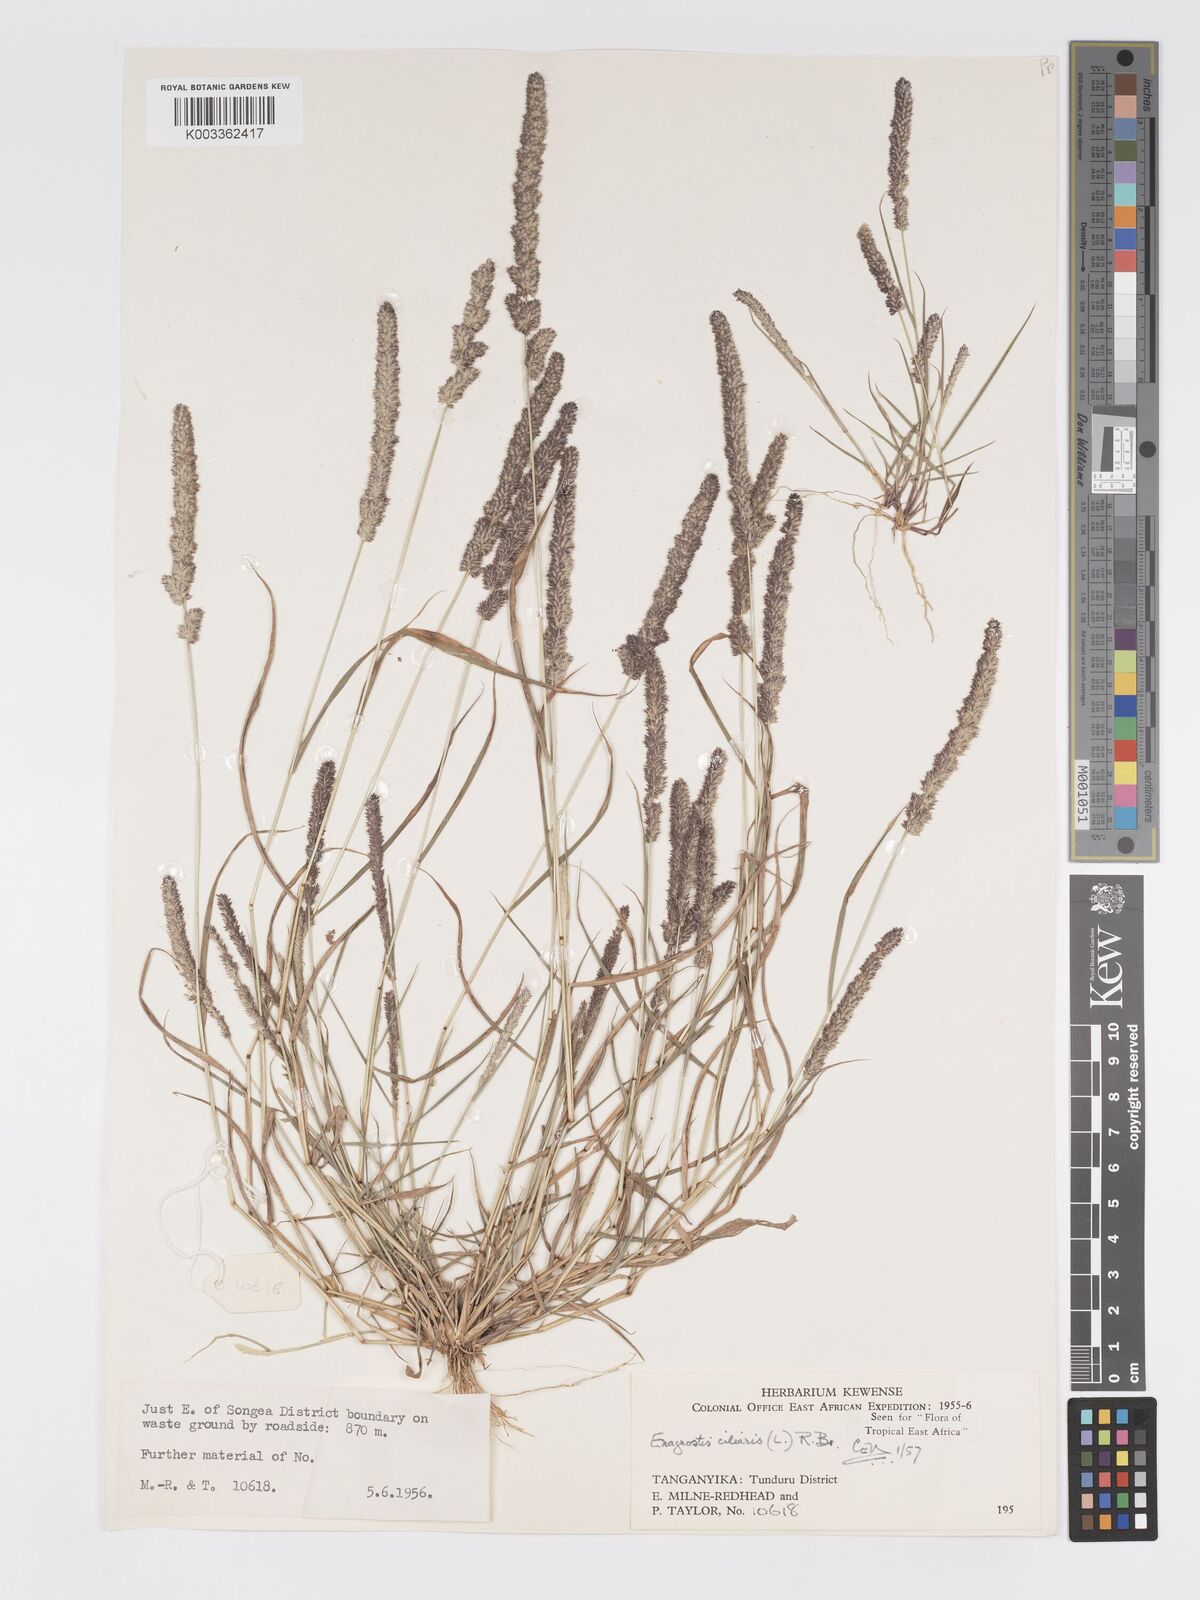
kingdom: Plantae
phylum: Tracheophyta
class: Liliopsida
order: Poales
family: Poaceae
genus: Eragrostis
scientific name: Eragrostis ciliaris
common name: Gophertail lovegrass
